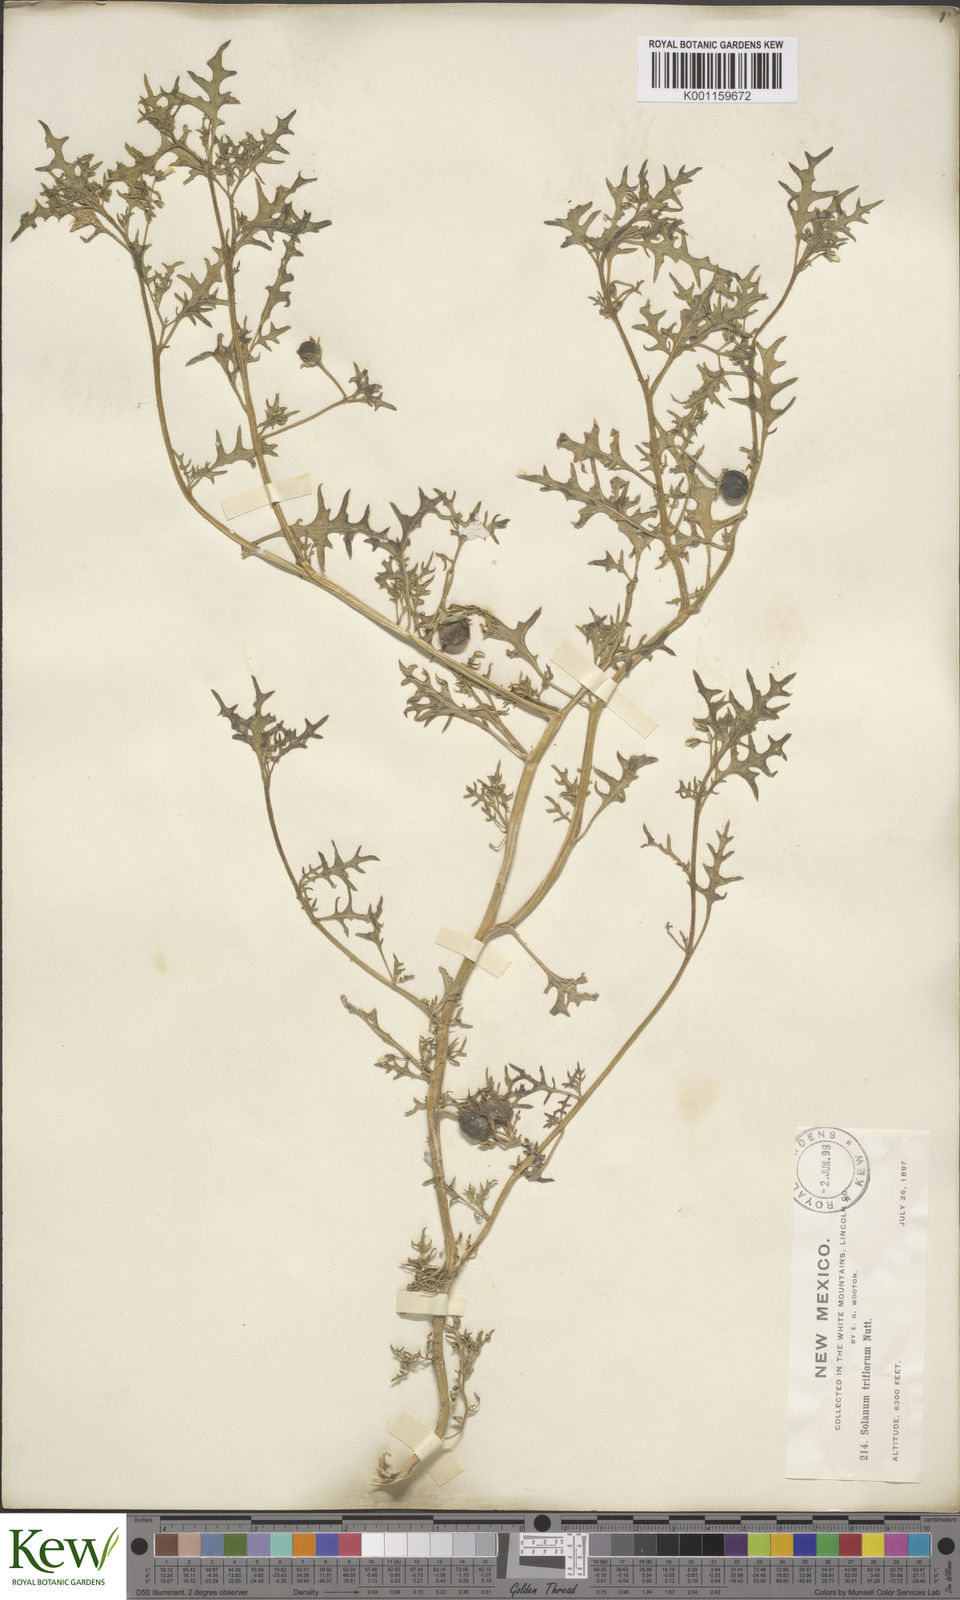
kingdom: Plantae
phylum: Tracheophyta
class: Magnoliopsida
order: Solanales
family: Solanaceae
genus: Solanum
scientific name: Solanum triflorum
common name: Small nightshade
